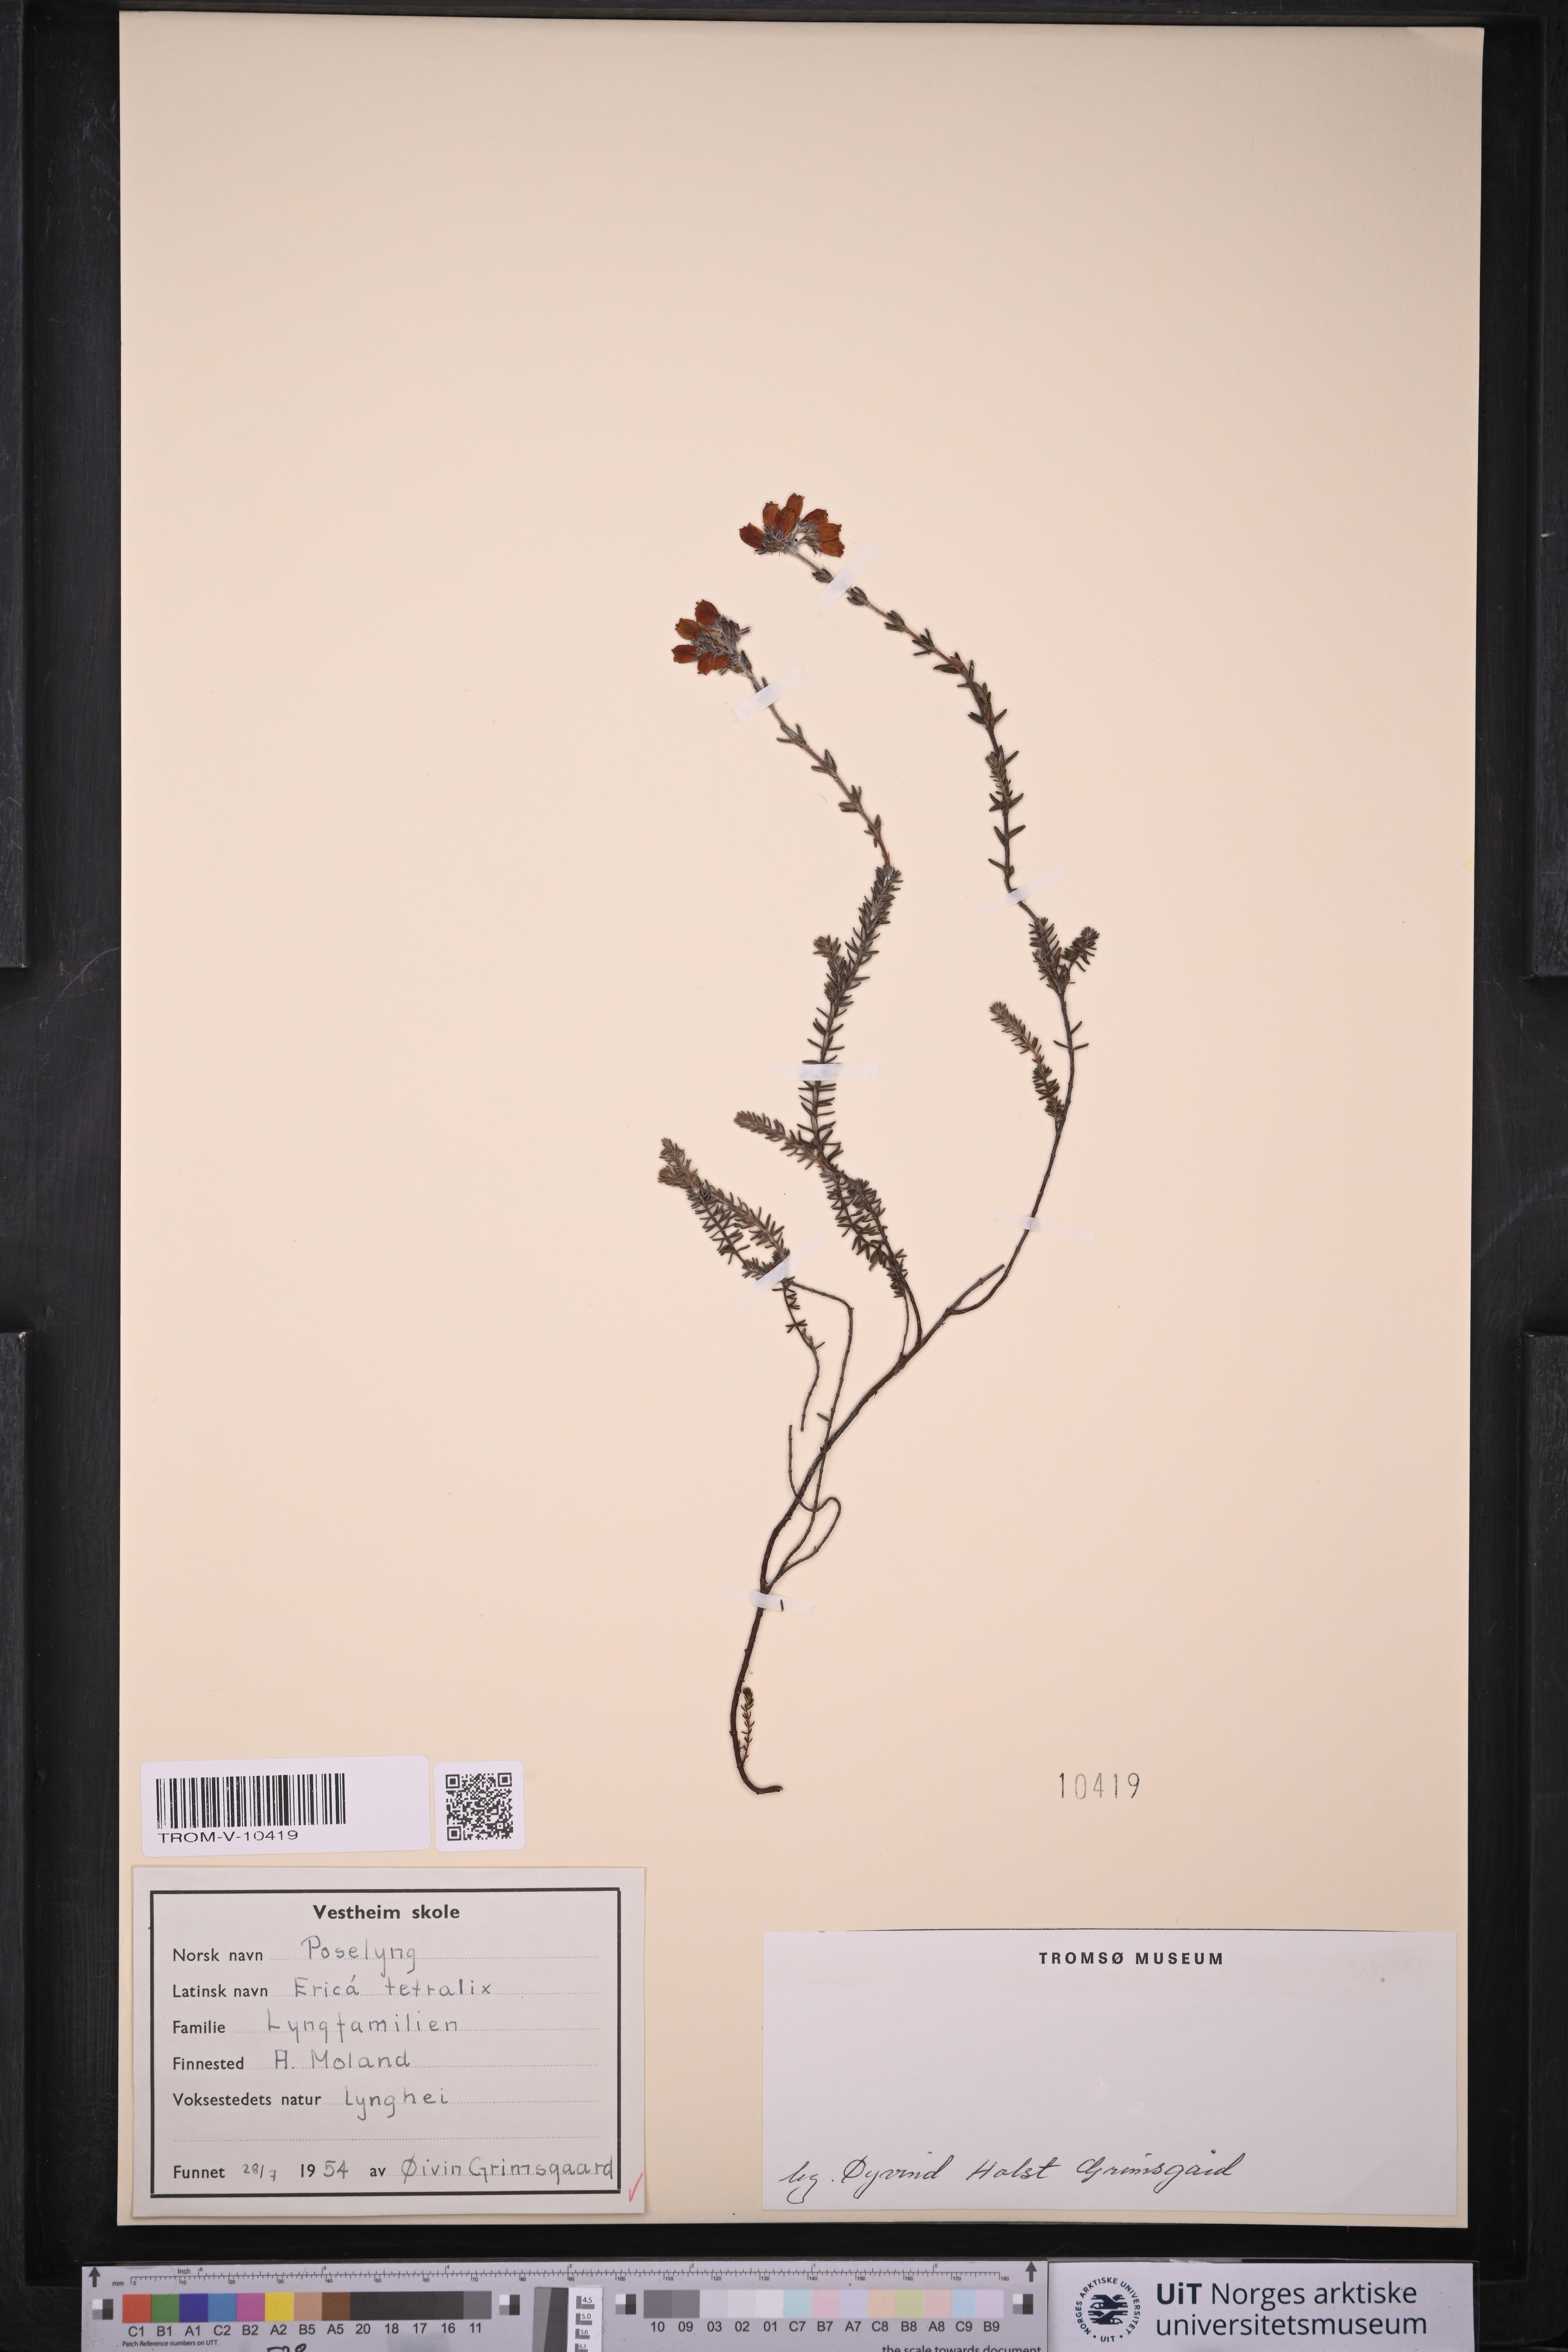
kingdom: Plantae
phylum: Tracheophyta
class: Magnoliopsida
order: Ericales
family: Ericaceae
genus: Erica
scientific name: Erica tetralix
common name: Cross-leaved heath
